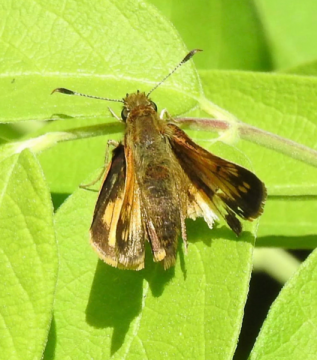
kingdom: Animalia
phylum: Arthropoda
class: Insecta
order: Lepidoptera
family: Hesperiidae
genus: Lon
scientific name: Lon hobomok
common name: Hobomok Skipper
